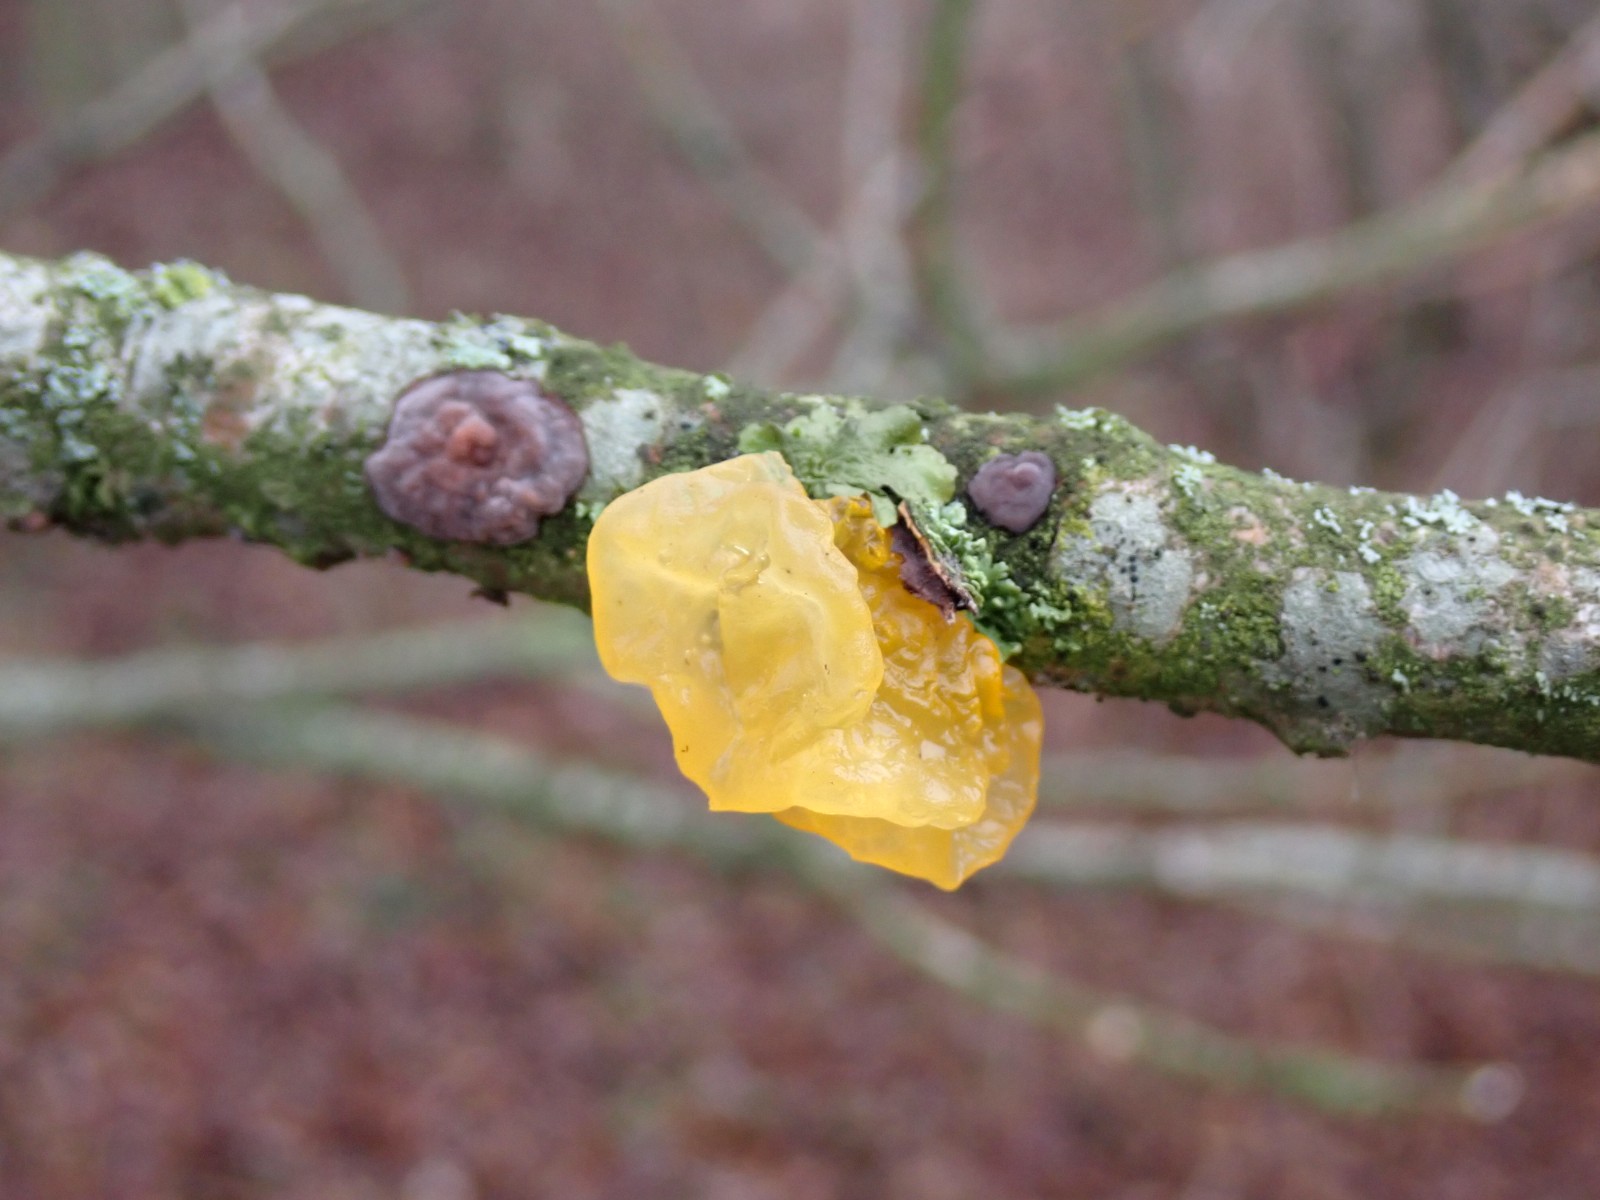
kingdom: Fungi
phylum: Basidiomycota
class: Agaricomycetes
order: Russulales
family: Peniophoraceae
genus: Peniophora
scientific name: Peniophora quercina
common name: ege-voksskind
